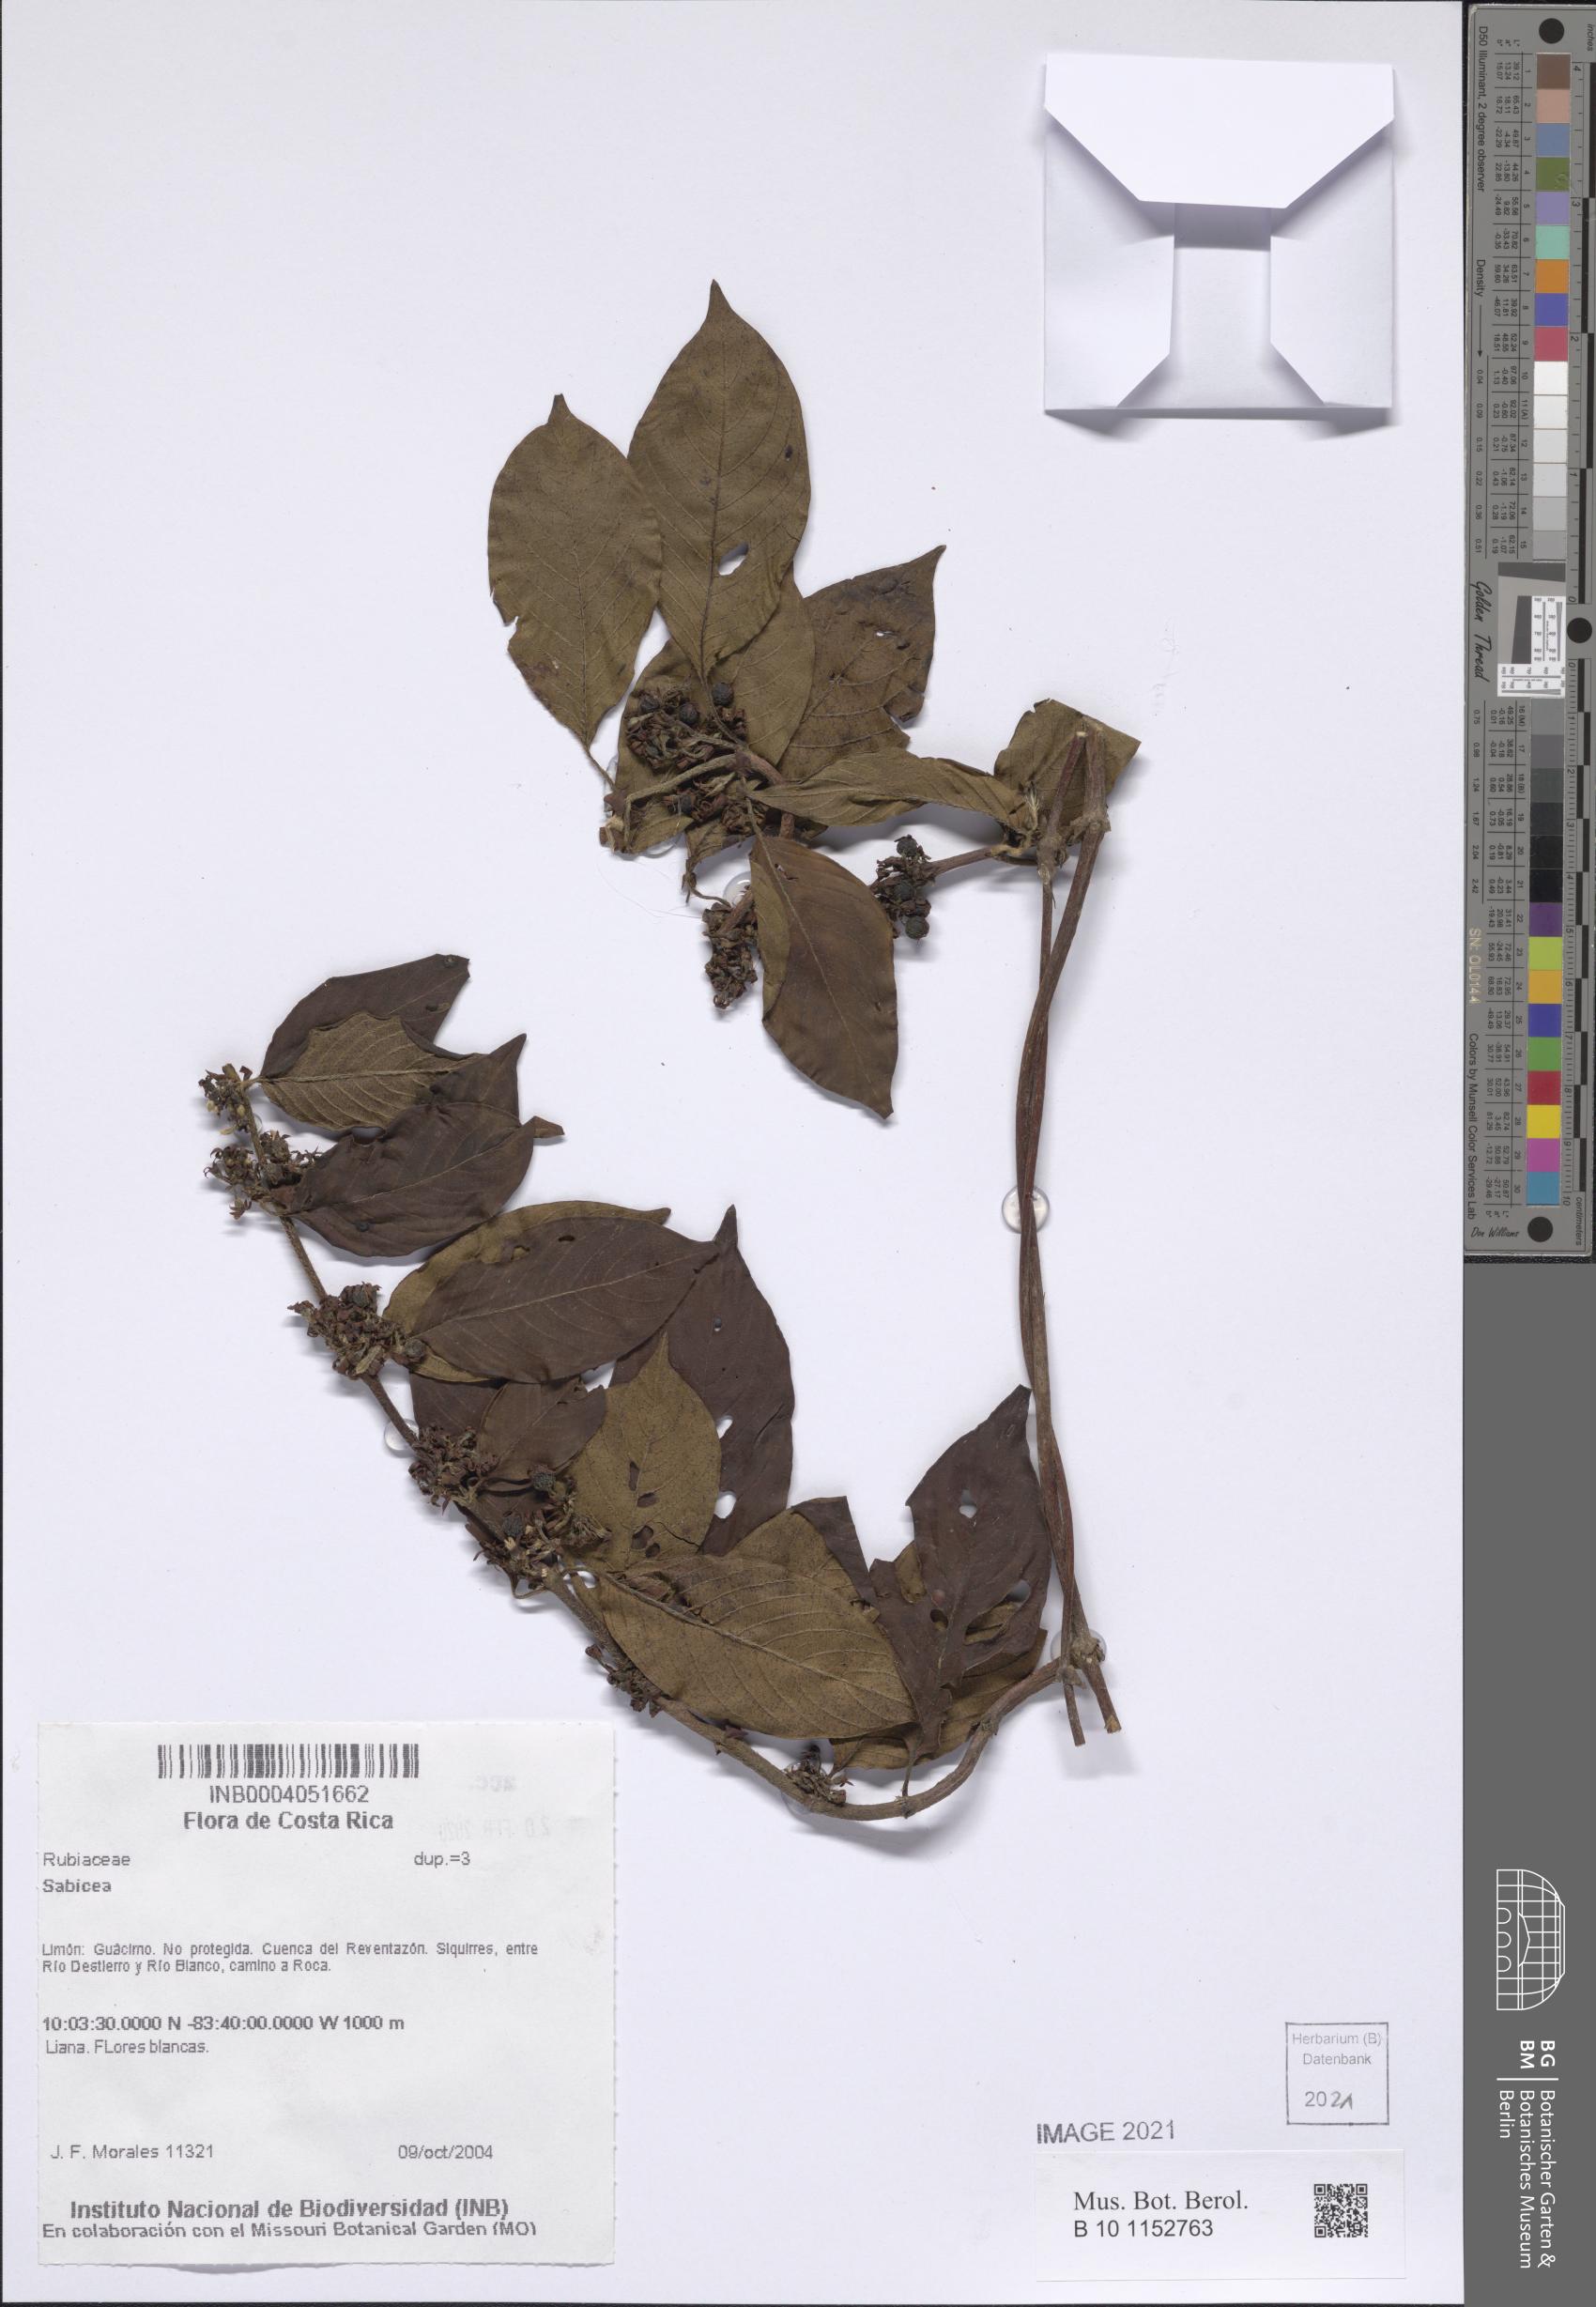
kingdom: Plantae
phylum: Tracheophyta
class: Magnoliopsida
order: Gentianales
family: Rubiaceae
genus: Sabicea
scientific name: Sabicea
